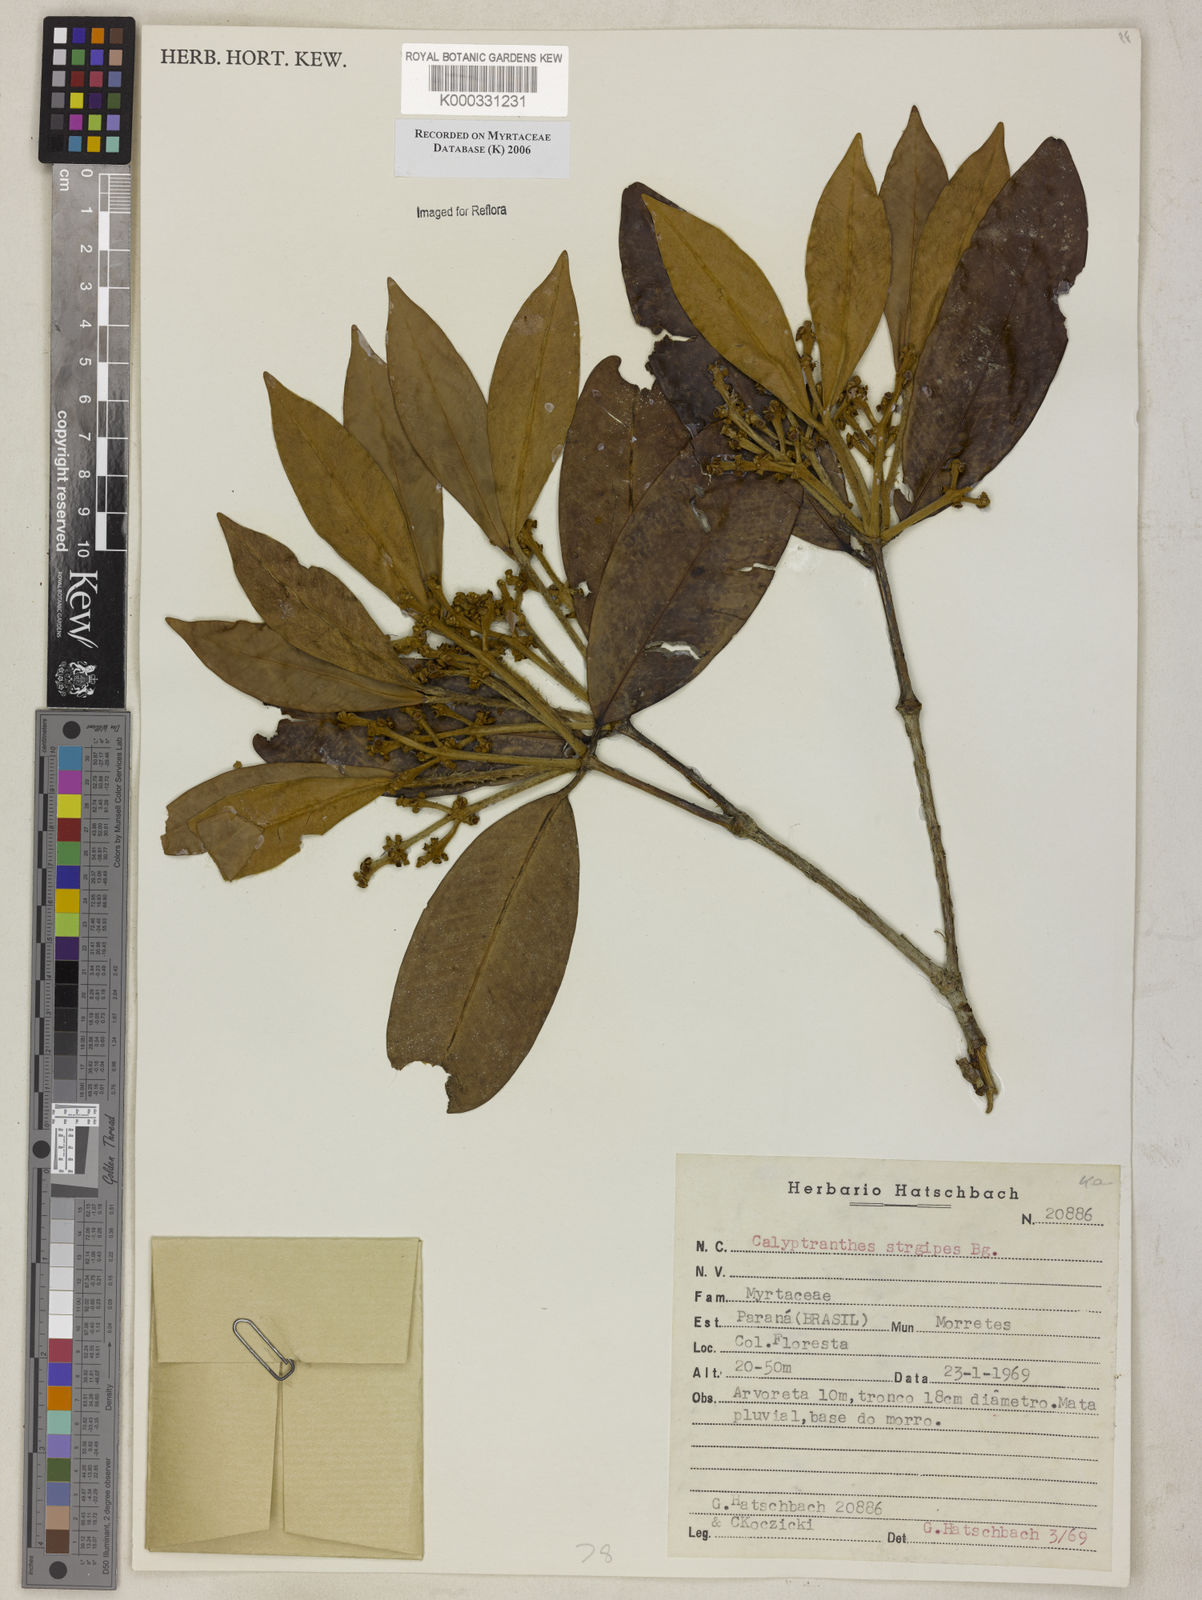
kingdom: Plantae
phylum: Tracheophyta
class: Magnoliopsida
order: Myrtales
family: Myrtaceae
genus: Myrcia
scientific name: Myrcia strigosa
